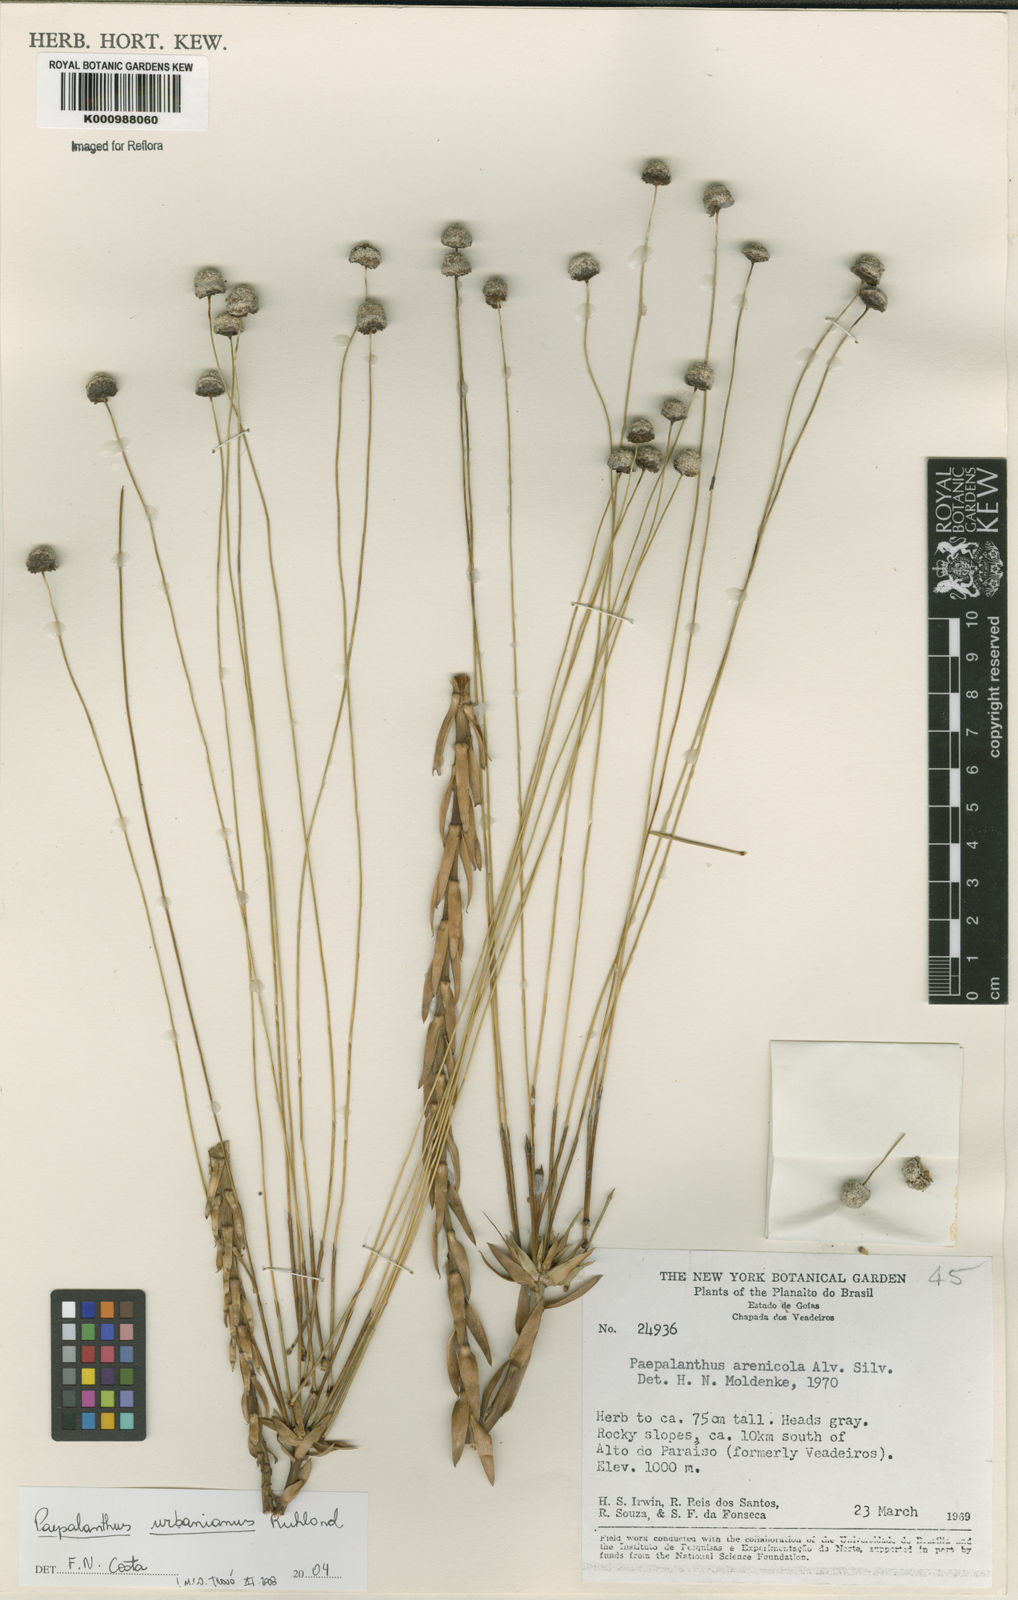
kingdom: Plantae
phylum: Tracheophyta
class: Liliopsida
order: Poales
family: Eriocaulaceae
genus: Paepalanthus
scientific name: Paepalanthus urbanianus
